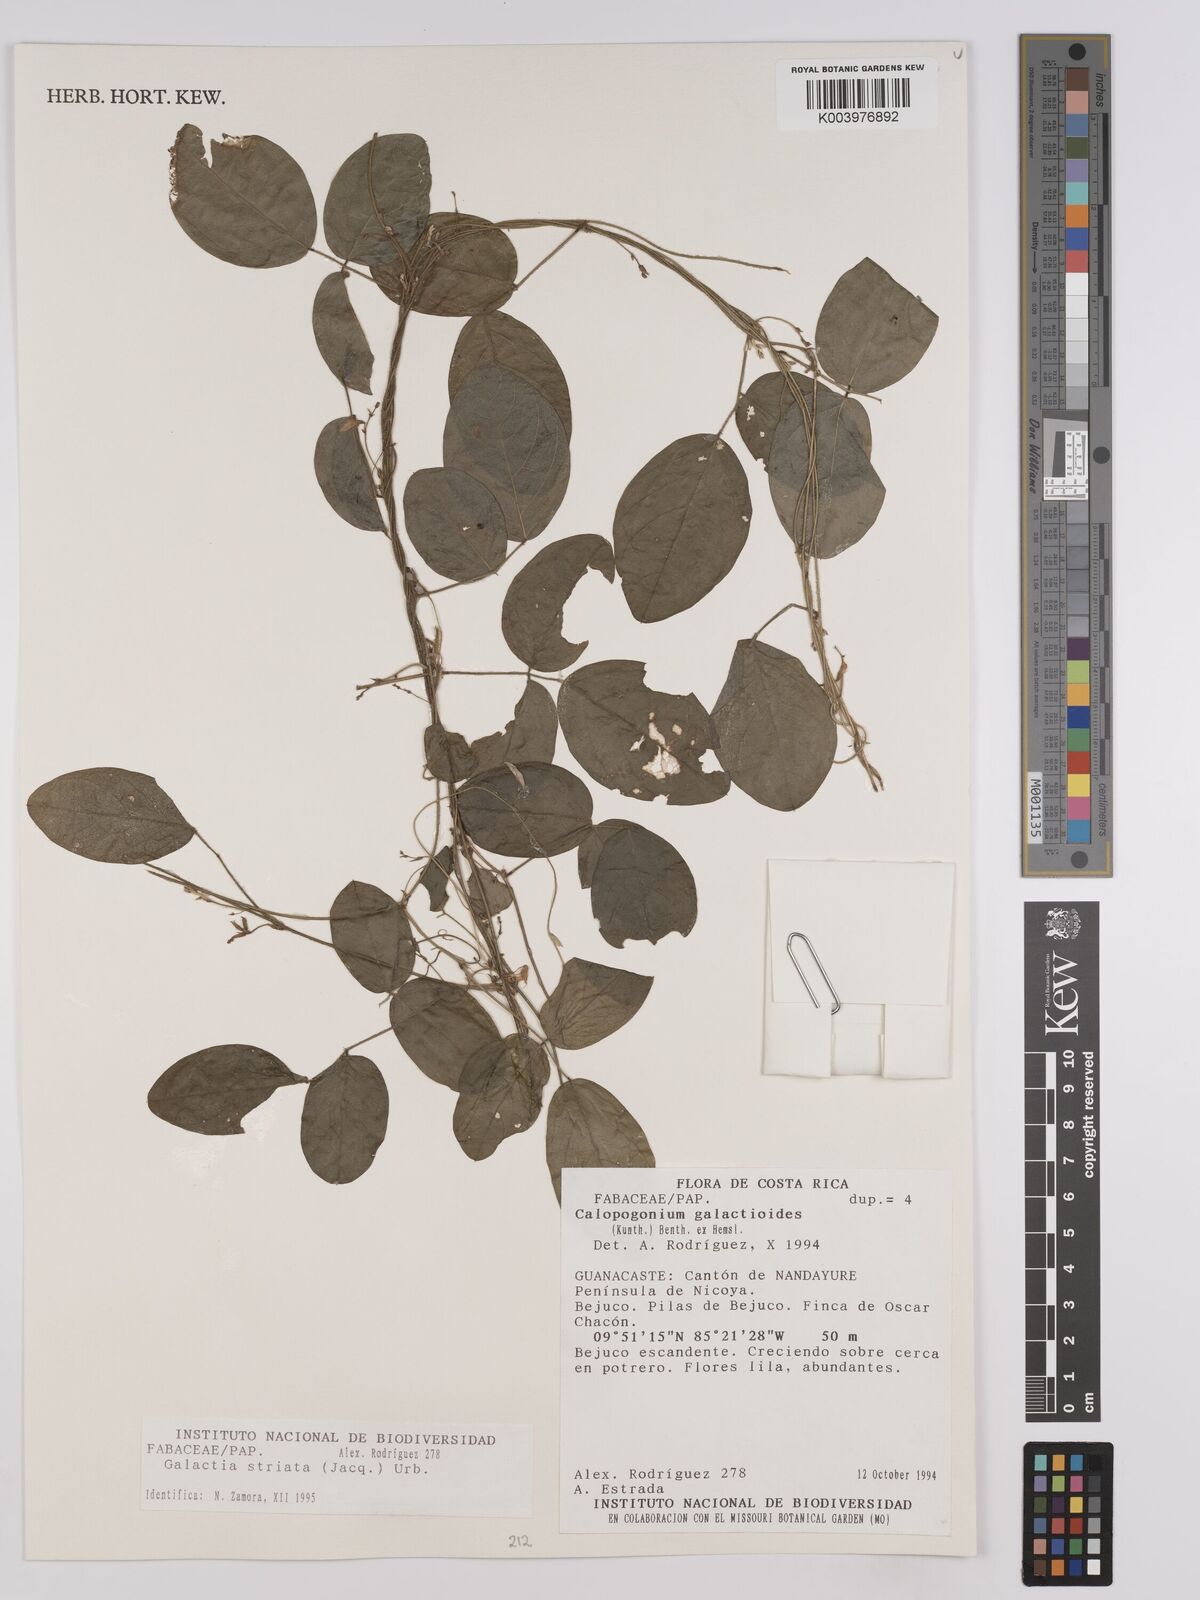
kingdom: Plantae
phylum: Tracheophyta
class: Magnoliopsida
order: Fabales
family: Fabaceae
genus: Galactia
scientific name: Galactia striata
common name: Florida hammock milkpea
